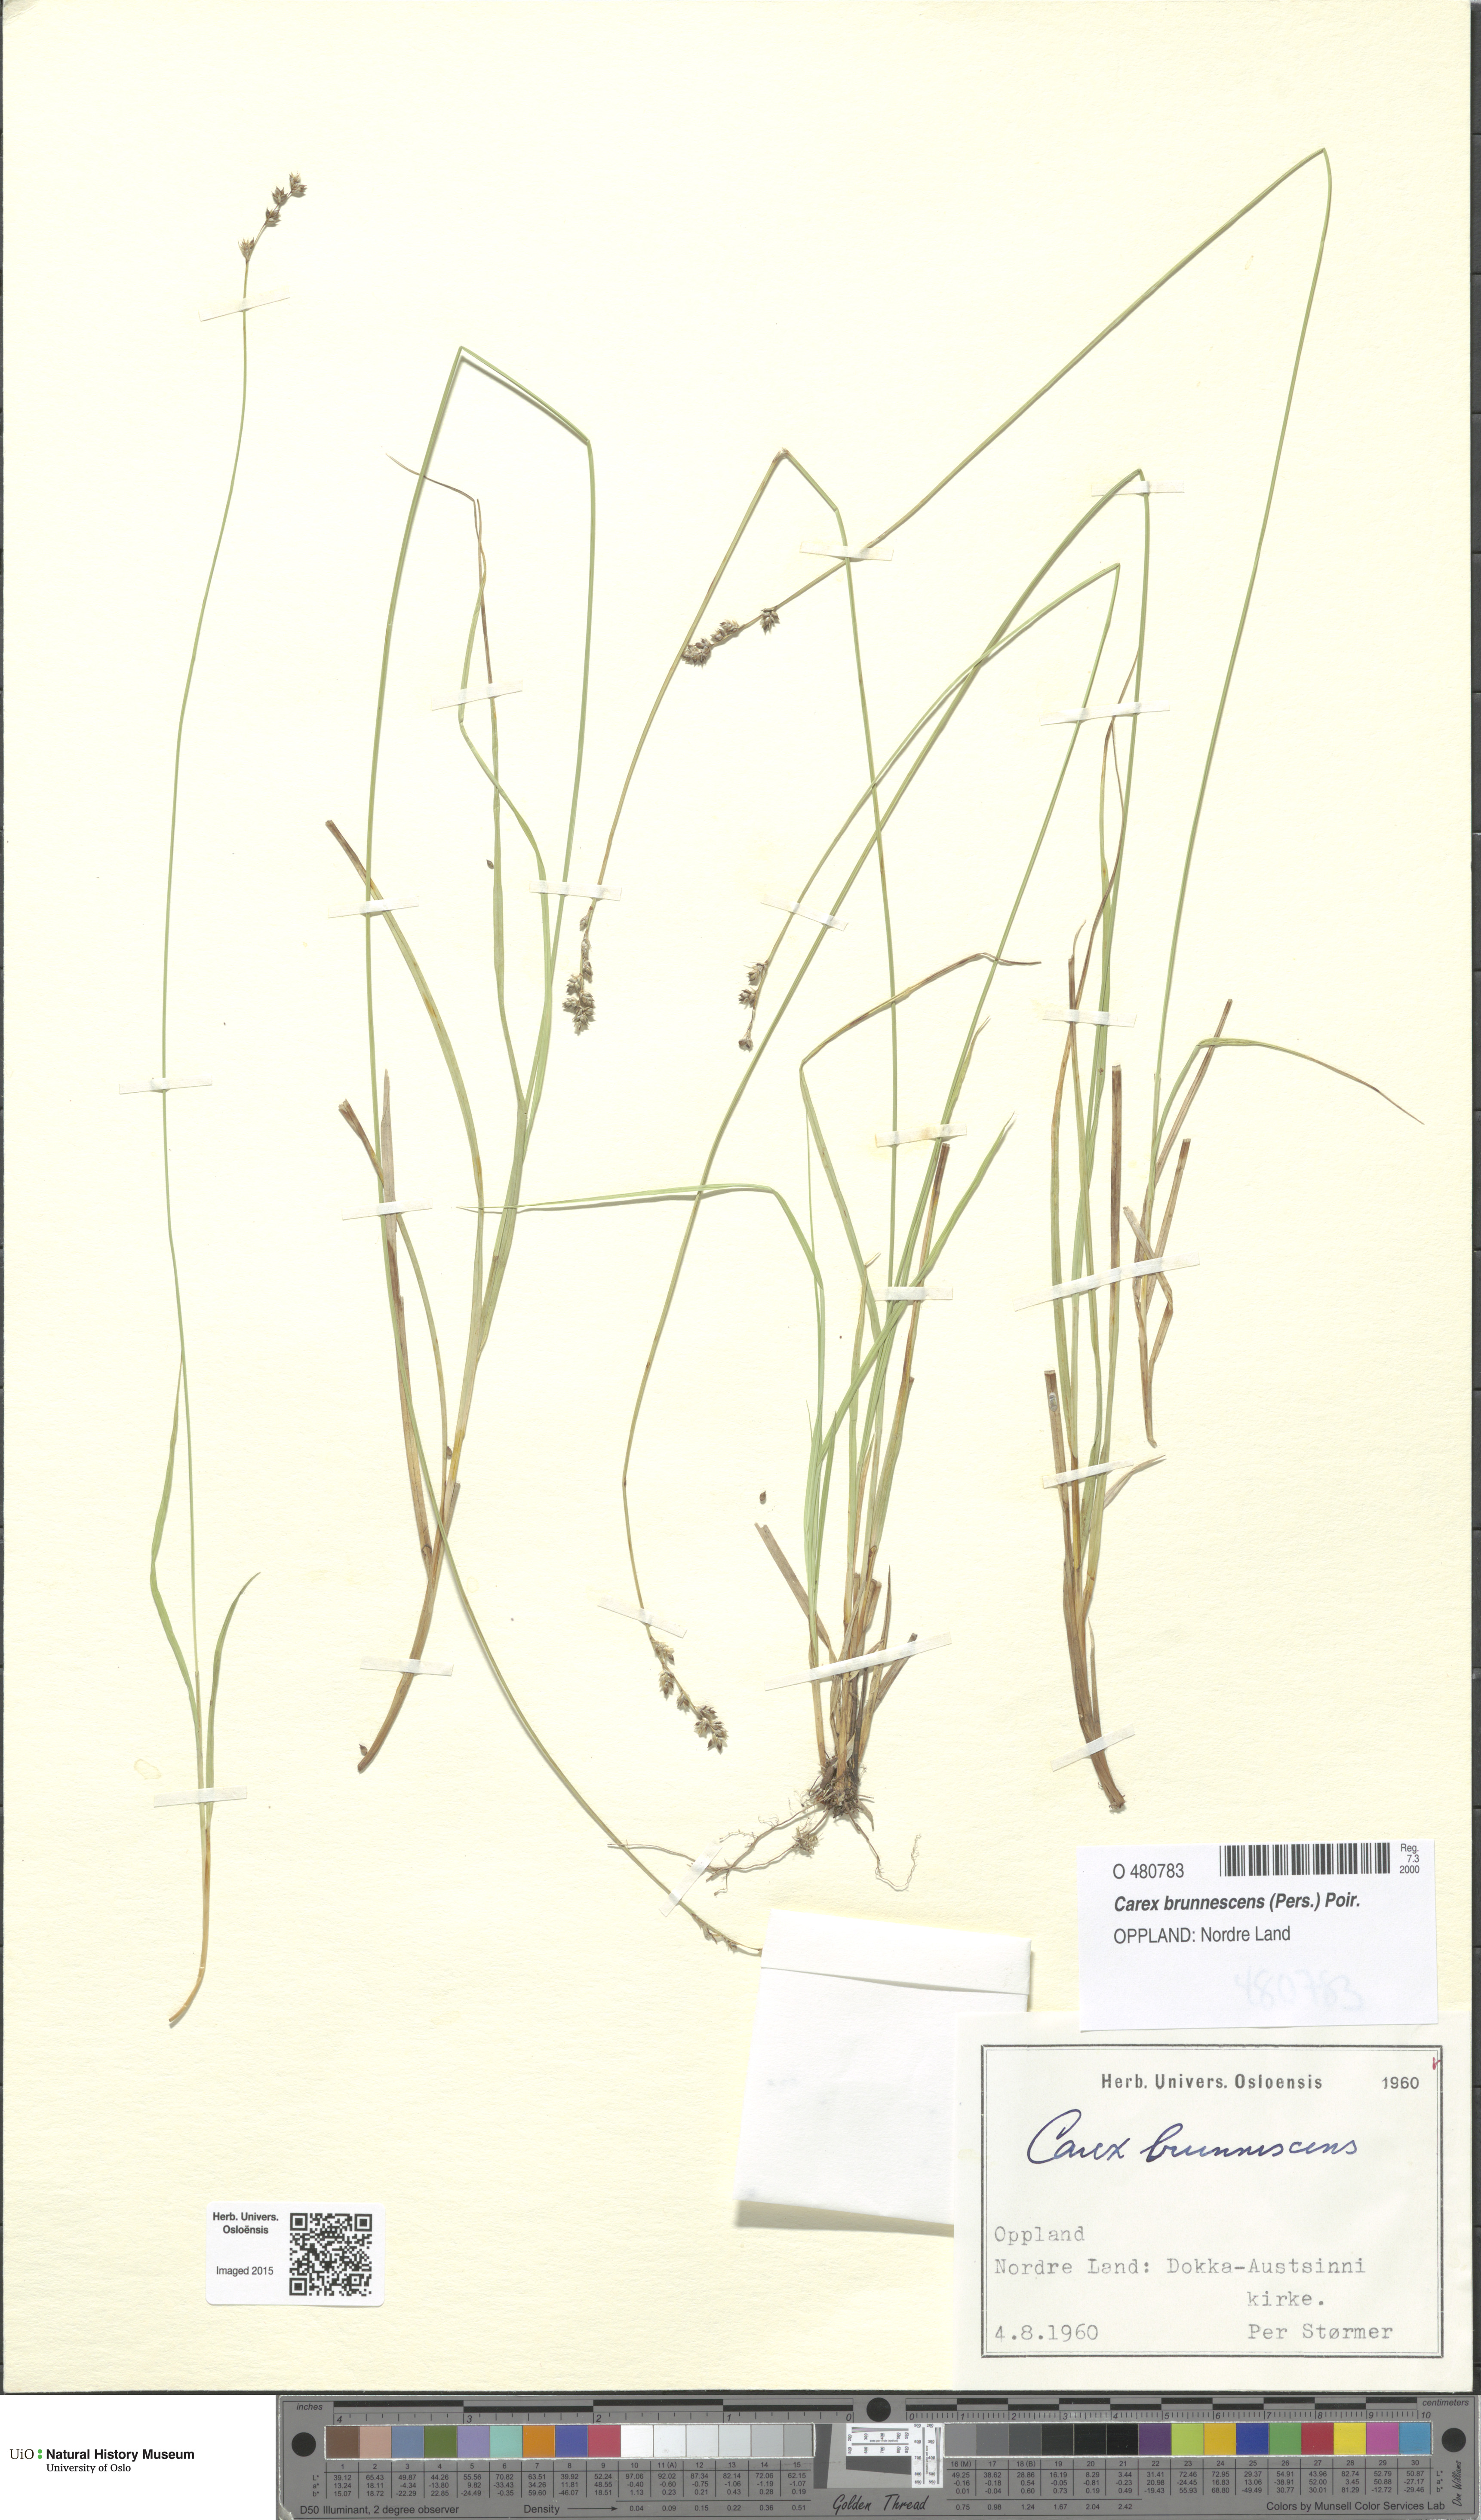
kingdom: Plantae
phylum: Tracheophyta
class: Liliopsida
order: Poales
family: Cyperaceae
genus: Carex
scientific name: Carex brunnescens
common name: Brown sedge
